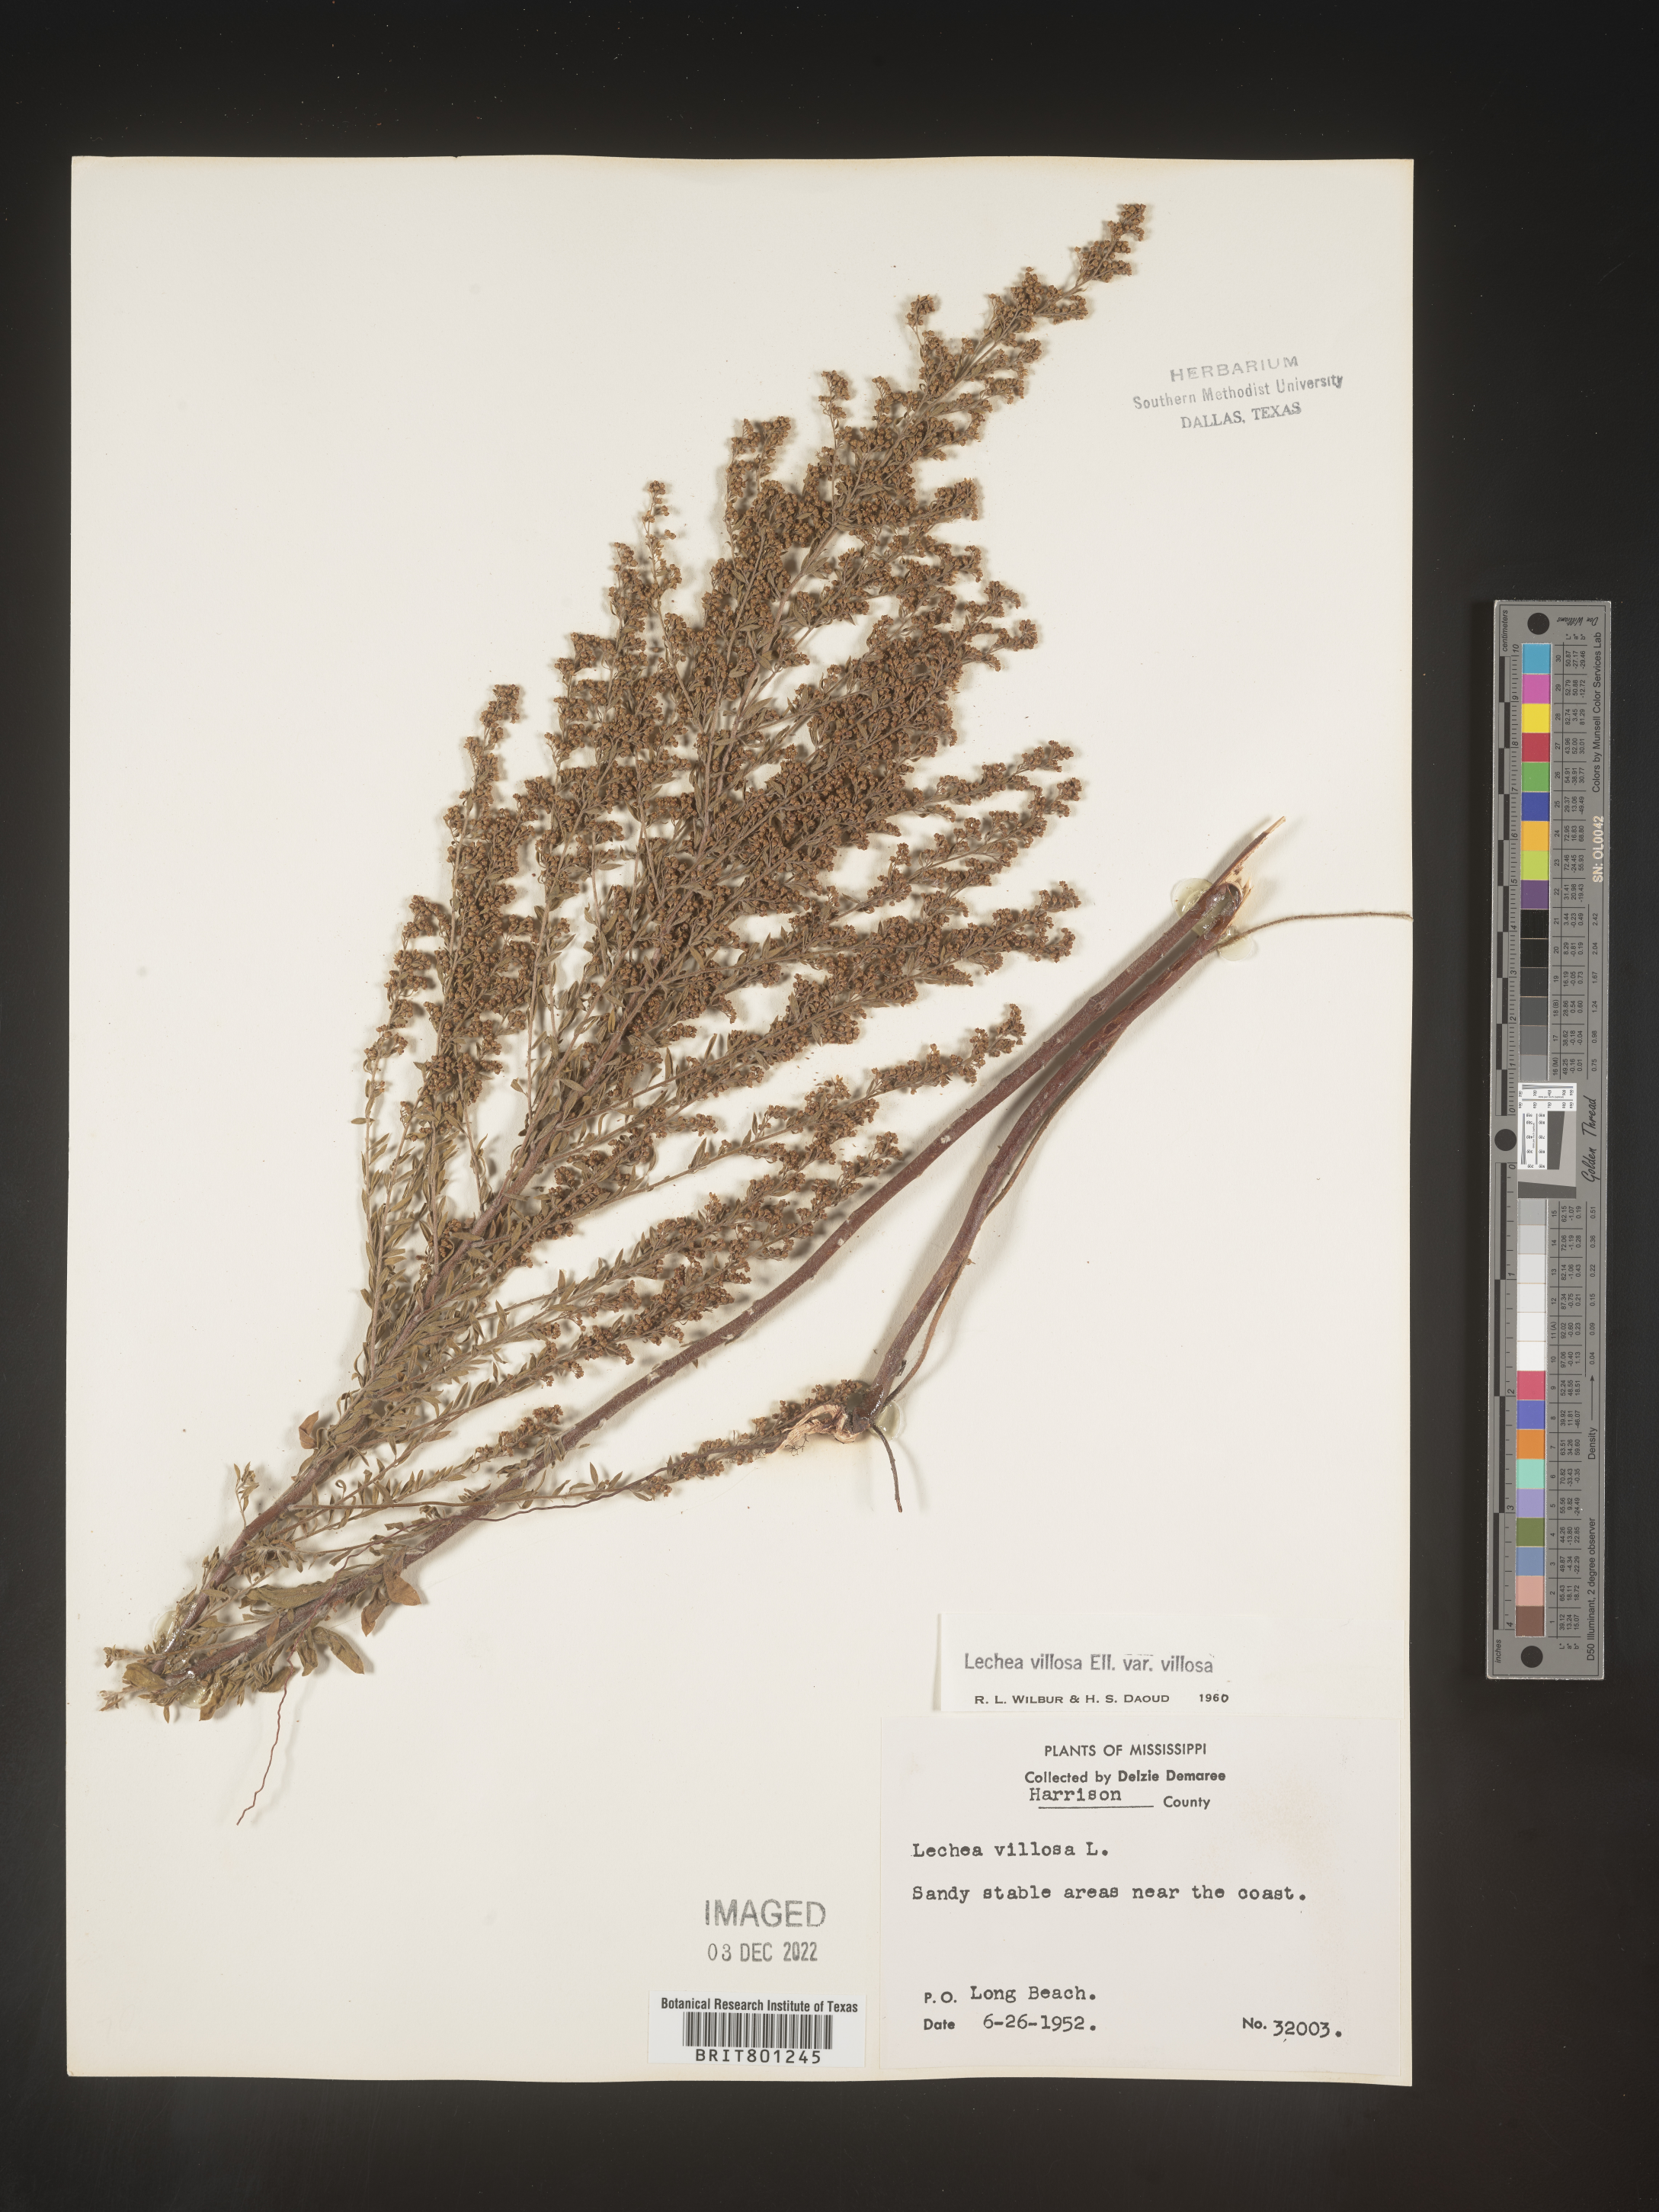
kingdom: Plantae
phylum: Tracheophyta
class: Magnoliopsida
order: Malvales
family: Cistaceae
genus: Lechea
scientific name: Lechea mucronata
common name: Hairy pinweed
